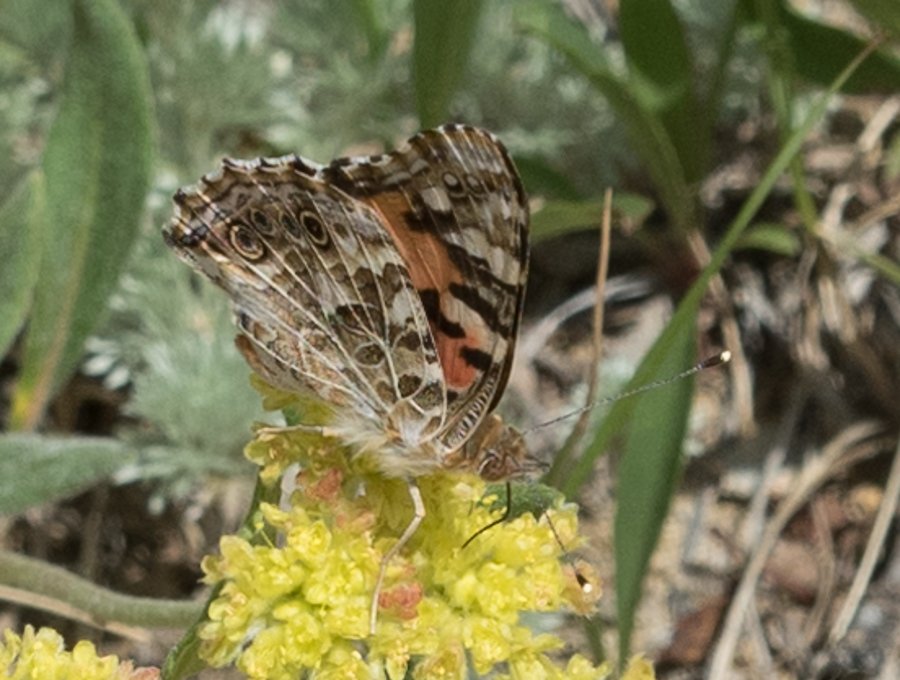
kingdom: Animalia
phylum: Arthropoda
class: Insecta
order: Lepidoptera
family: Nymphalidae
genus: Vanessa
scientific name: Vanessa cardui
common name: Painted Lady
